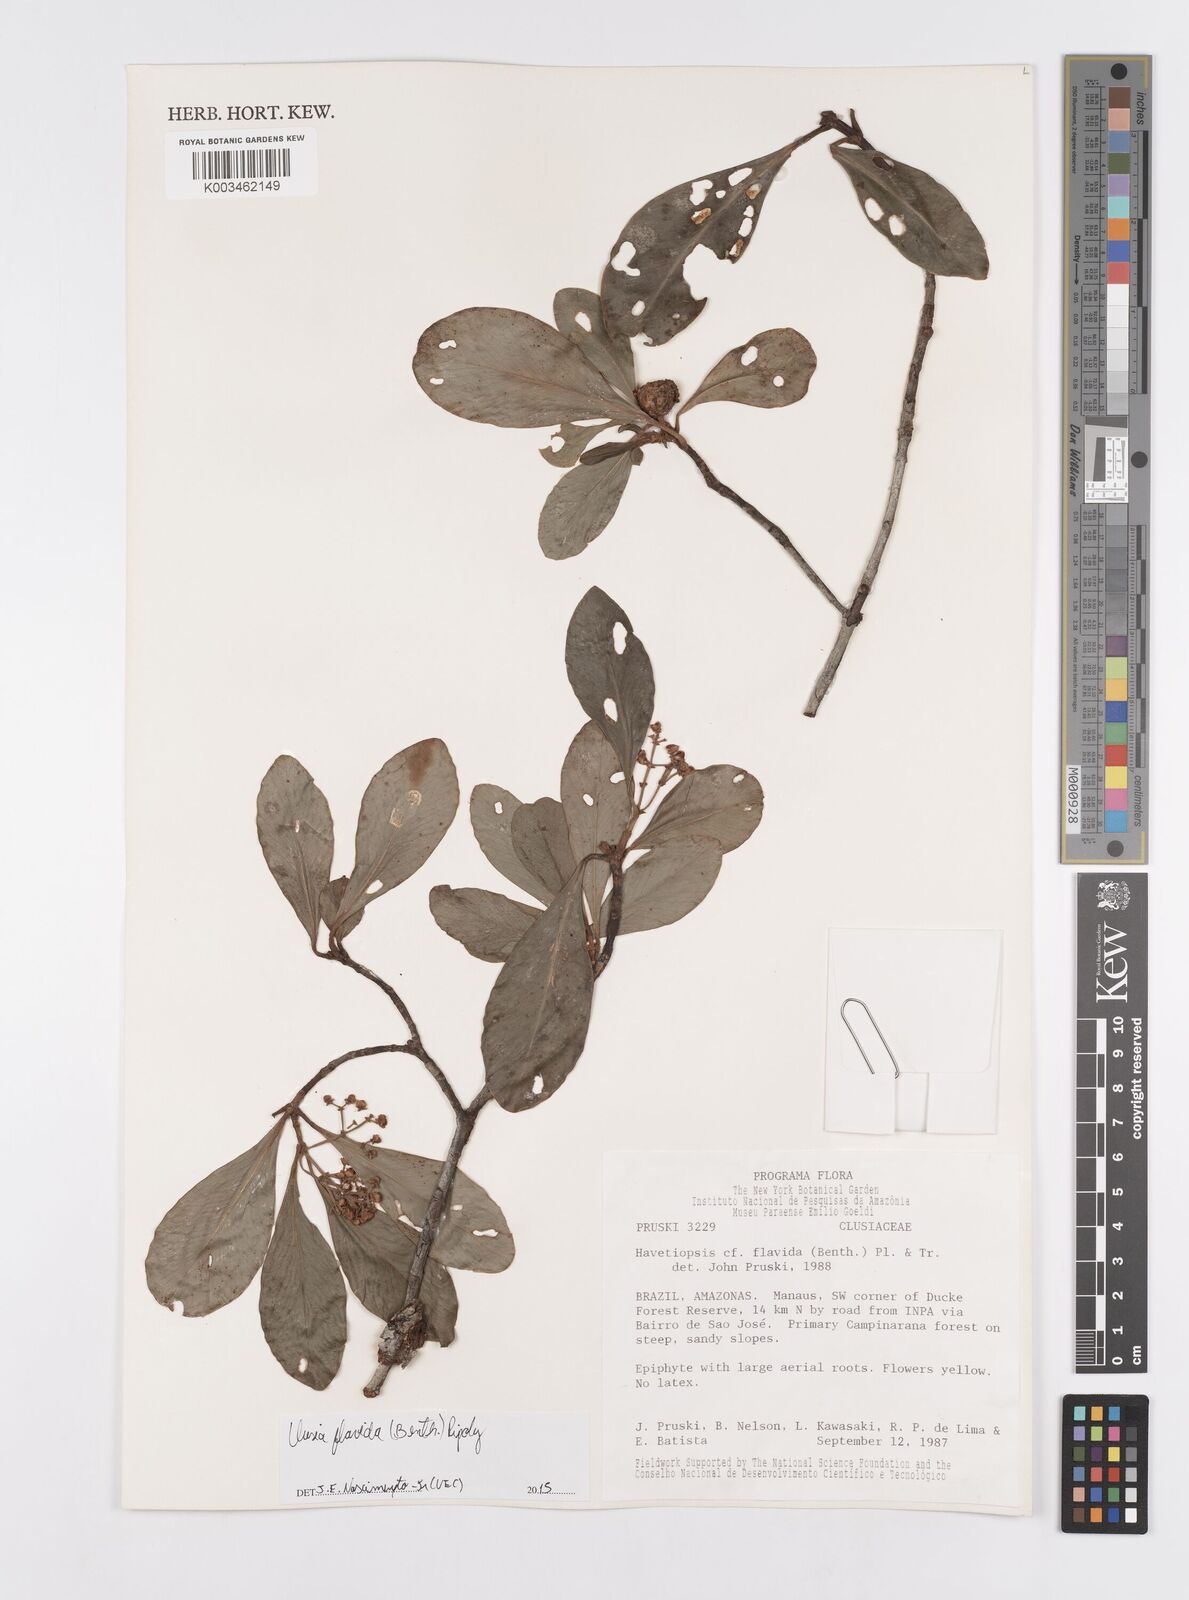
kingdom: Plantae
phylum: Tracheophyta
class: Magnoliopsida
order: Malpighiales
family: Clusiaceae
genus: Clusia
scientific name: Clusia flavida
